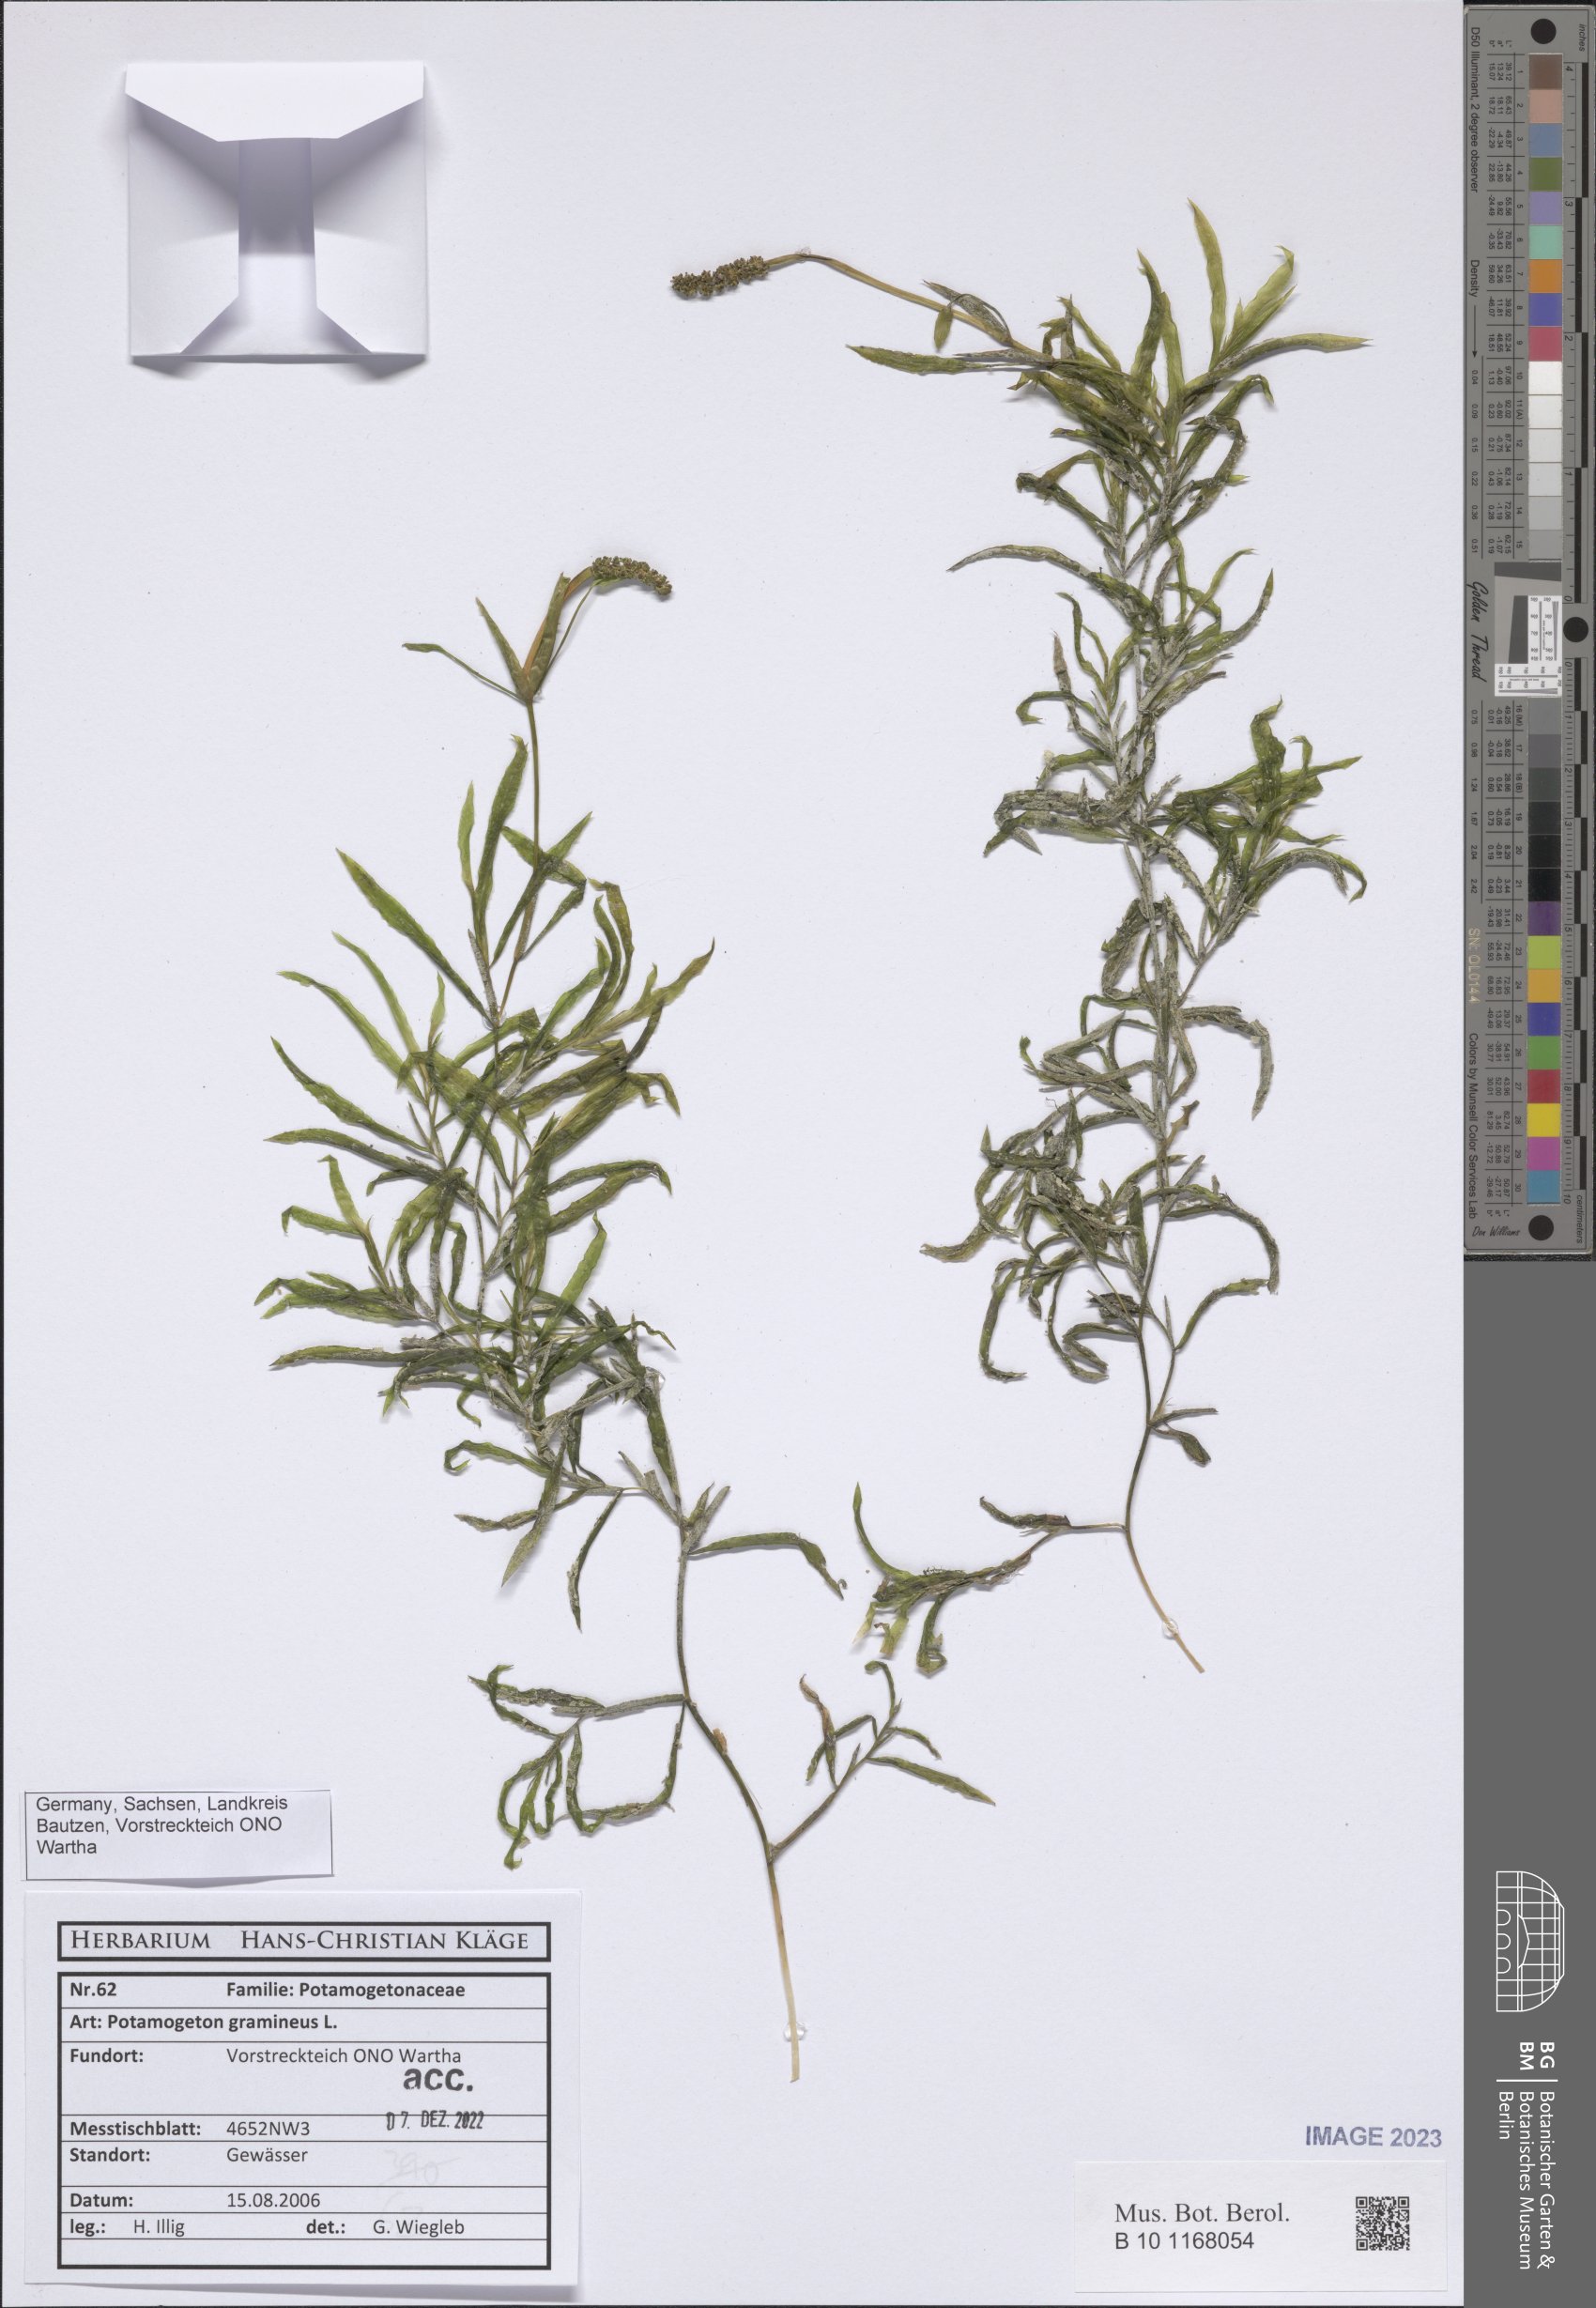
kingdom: Plantae
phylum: Tracheophyta
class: Liliopsida
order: Alismatales
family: Potamogetonaceae
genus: Potamogeton
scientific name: Potamogeton gramineus
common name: Various-leaved pondweed
